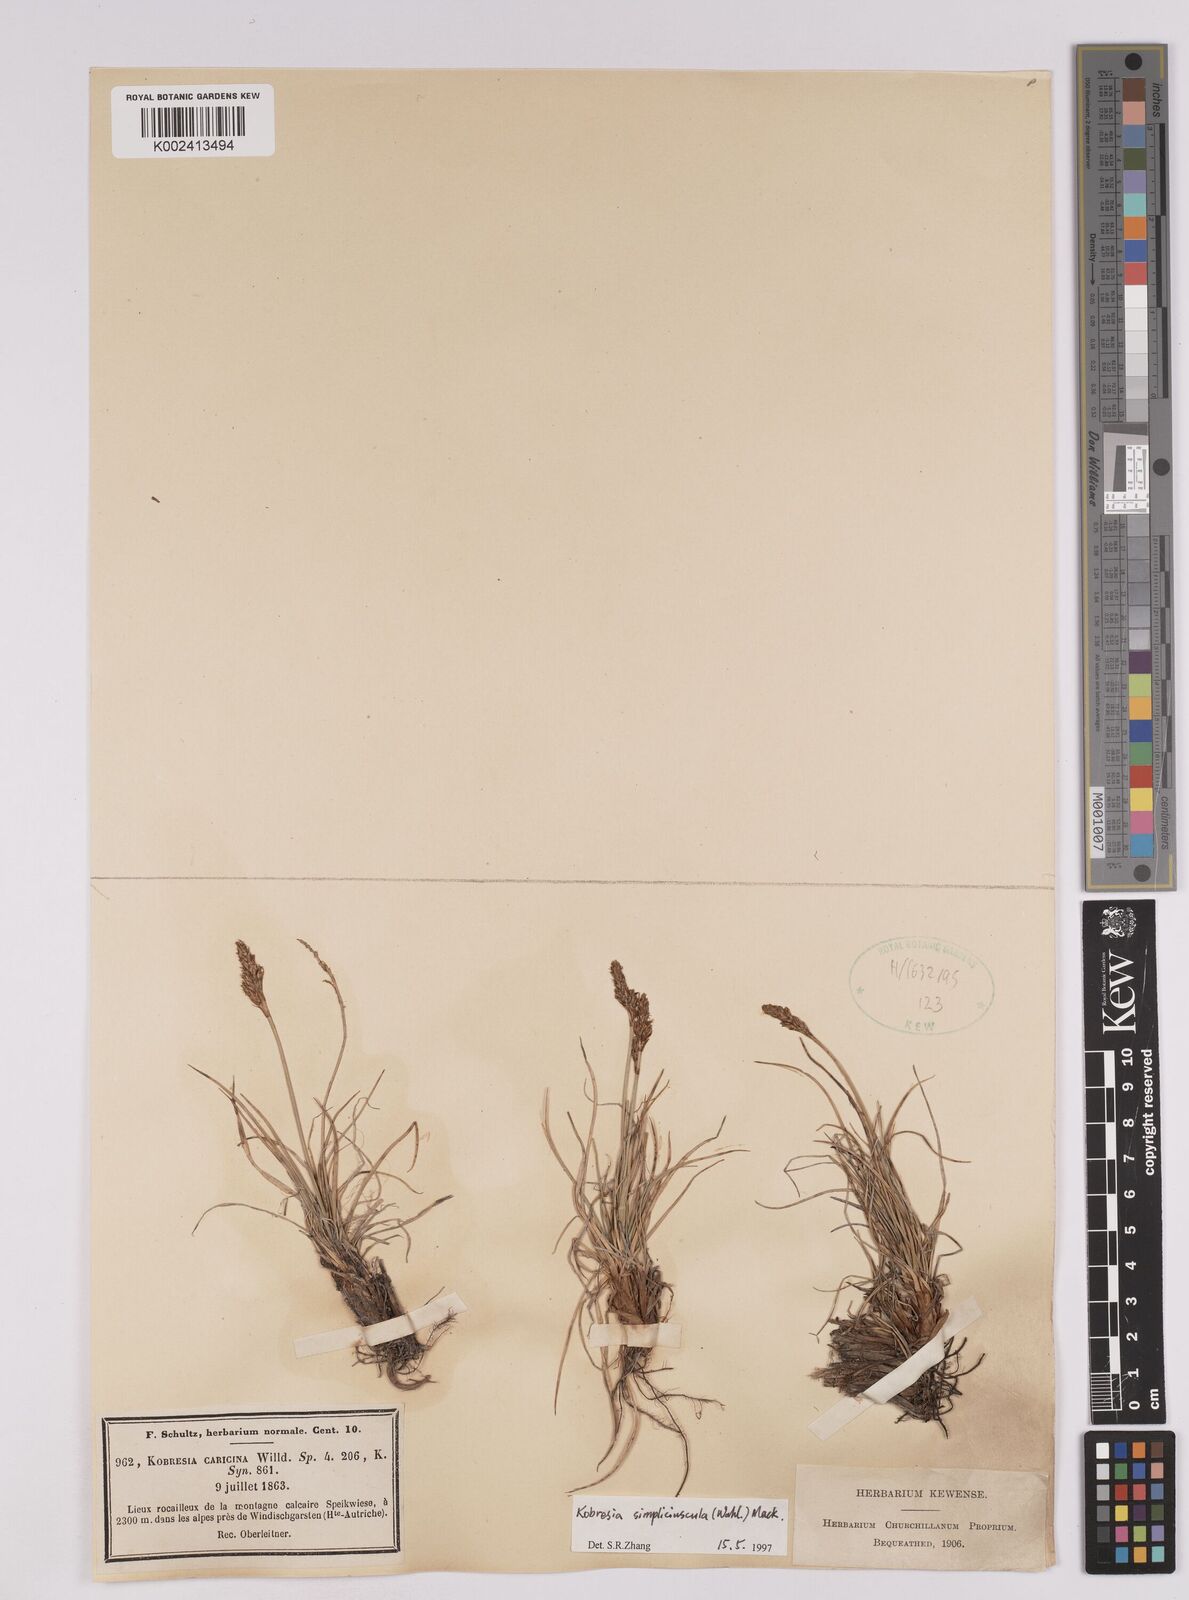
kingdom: Plantae
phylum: Tracheophyta
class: Liliopsida
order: Poales
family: Cyperaceae
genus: Carex
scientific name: Carex simpliciuscula
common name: Simple bog sedge
